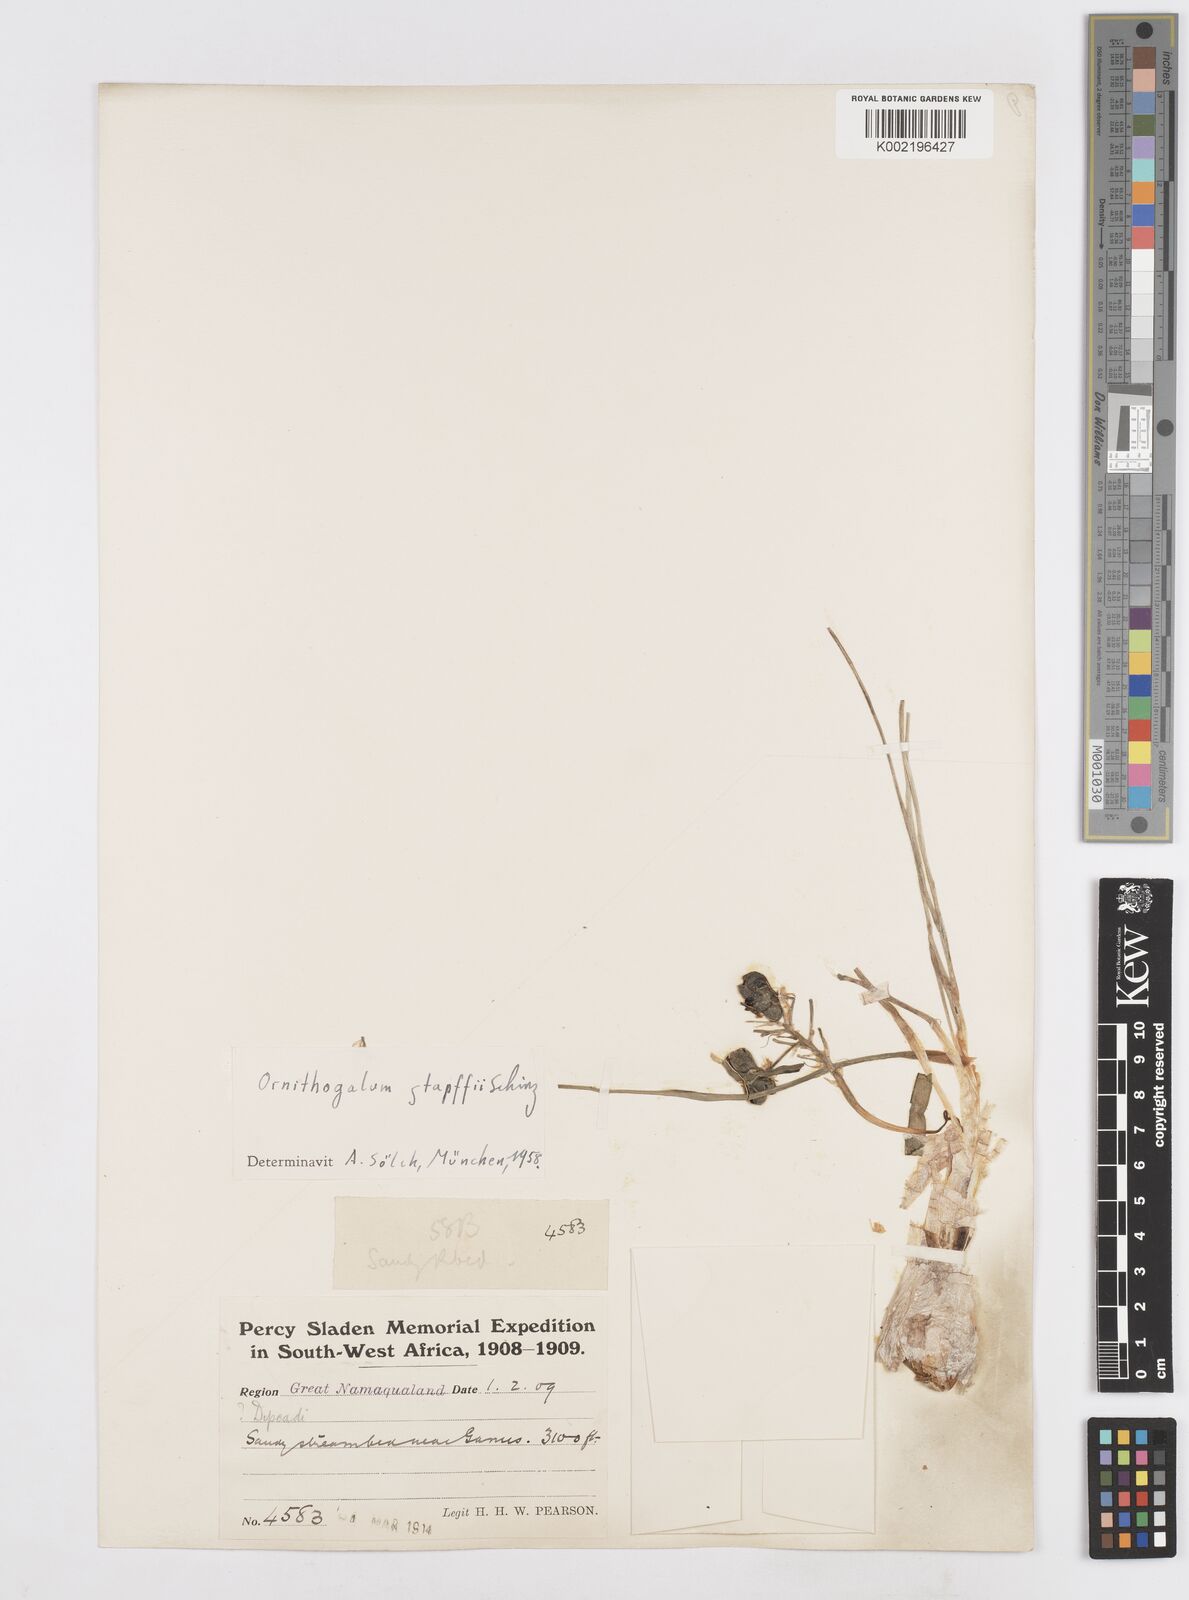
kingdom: Plantae
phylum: Tracheophyta
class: Liliopsida
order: Asparagales
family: Asparagaceae
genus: Albuca
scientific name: Albuca stapffii
